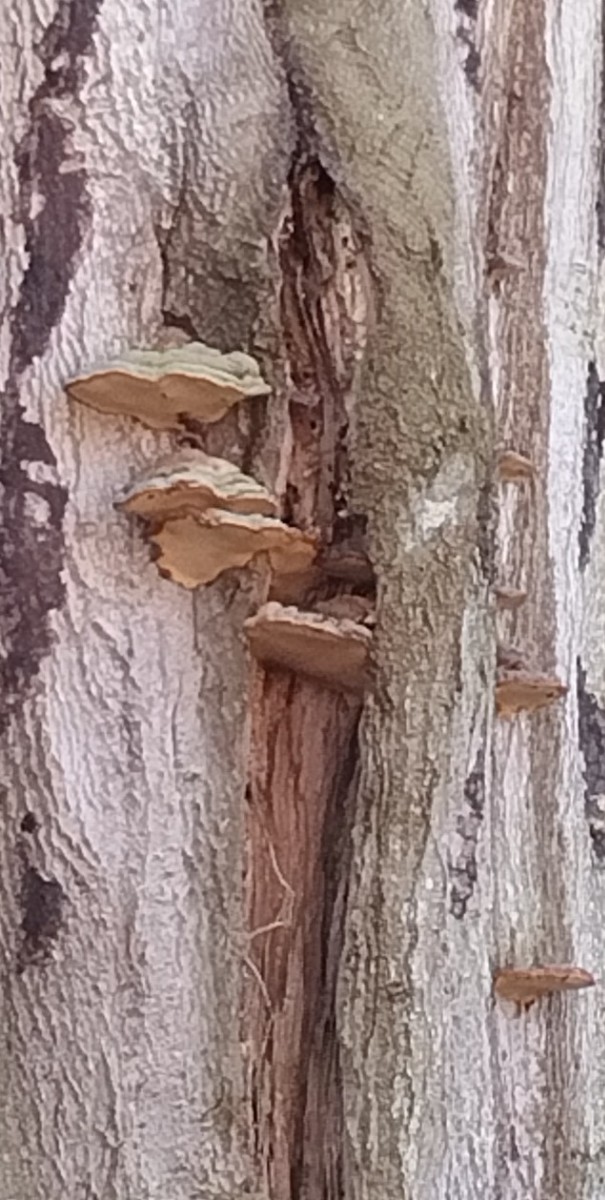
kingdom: Fungi
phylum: Basidiomycota
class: Agaricomycetes
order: Polyporales
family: Polyporaceae
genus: Ganoderma
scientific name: Ganoderma pfeifferi
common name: kobberrød lakporesvamp
